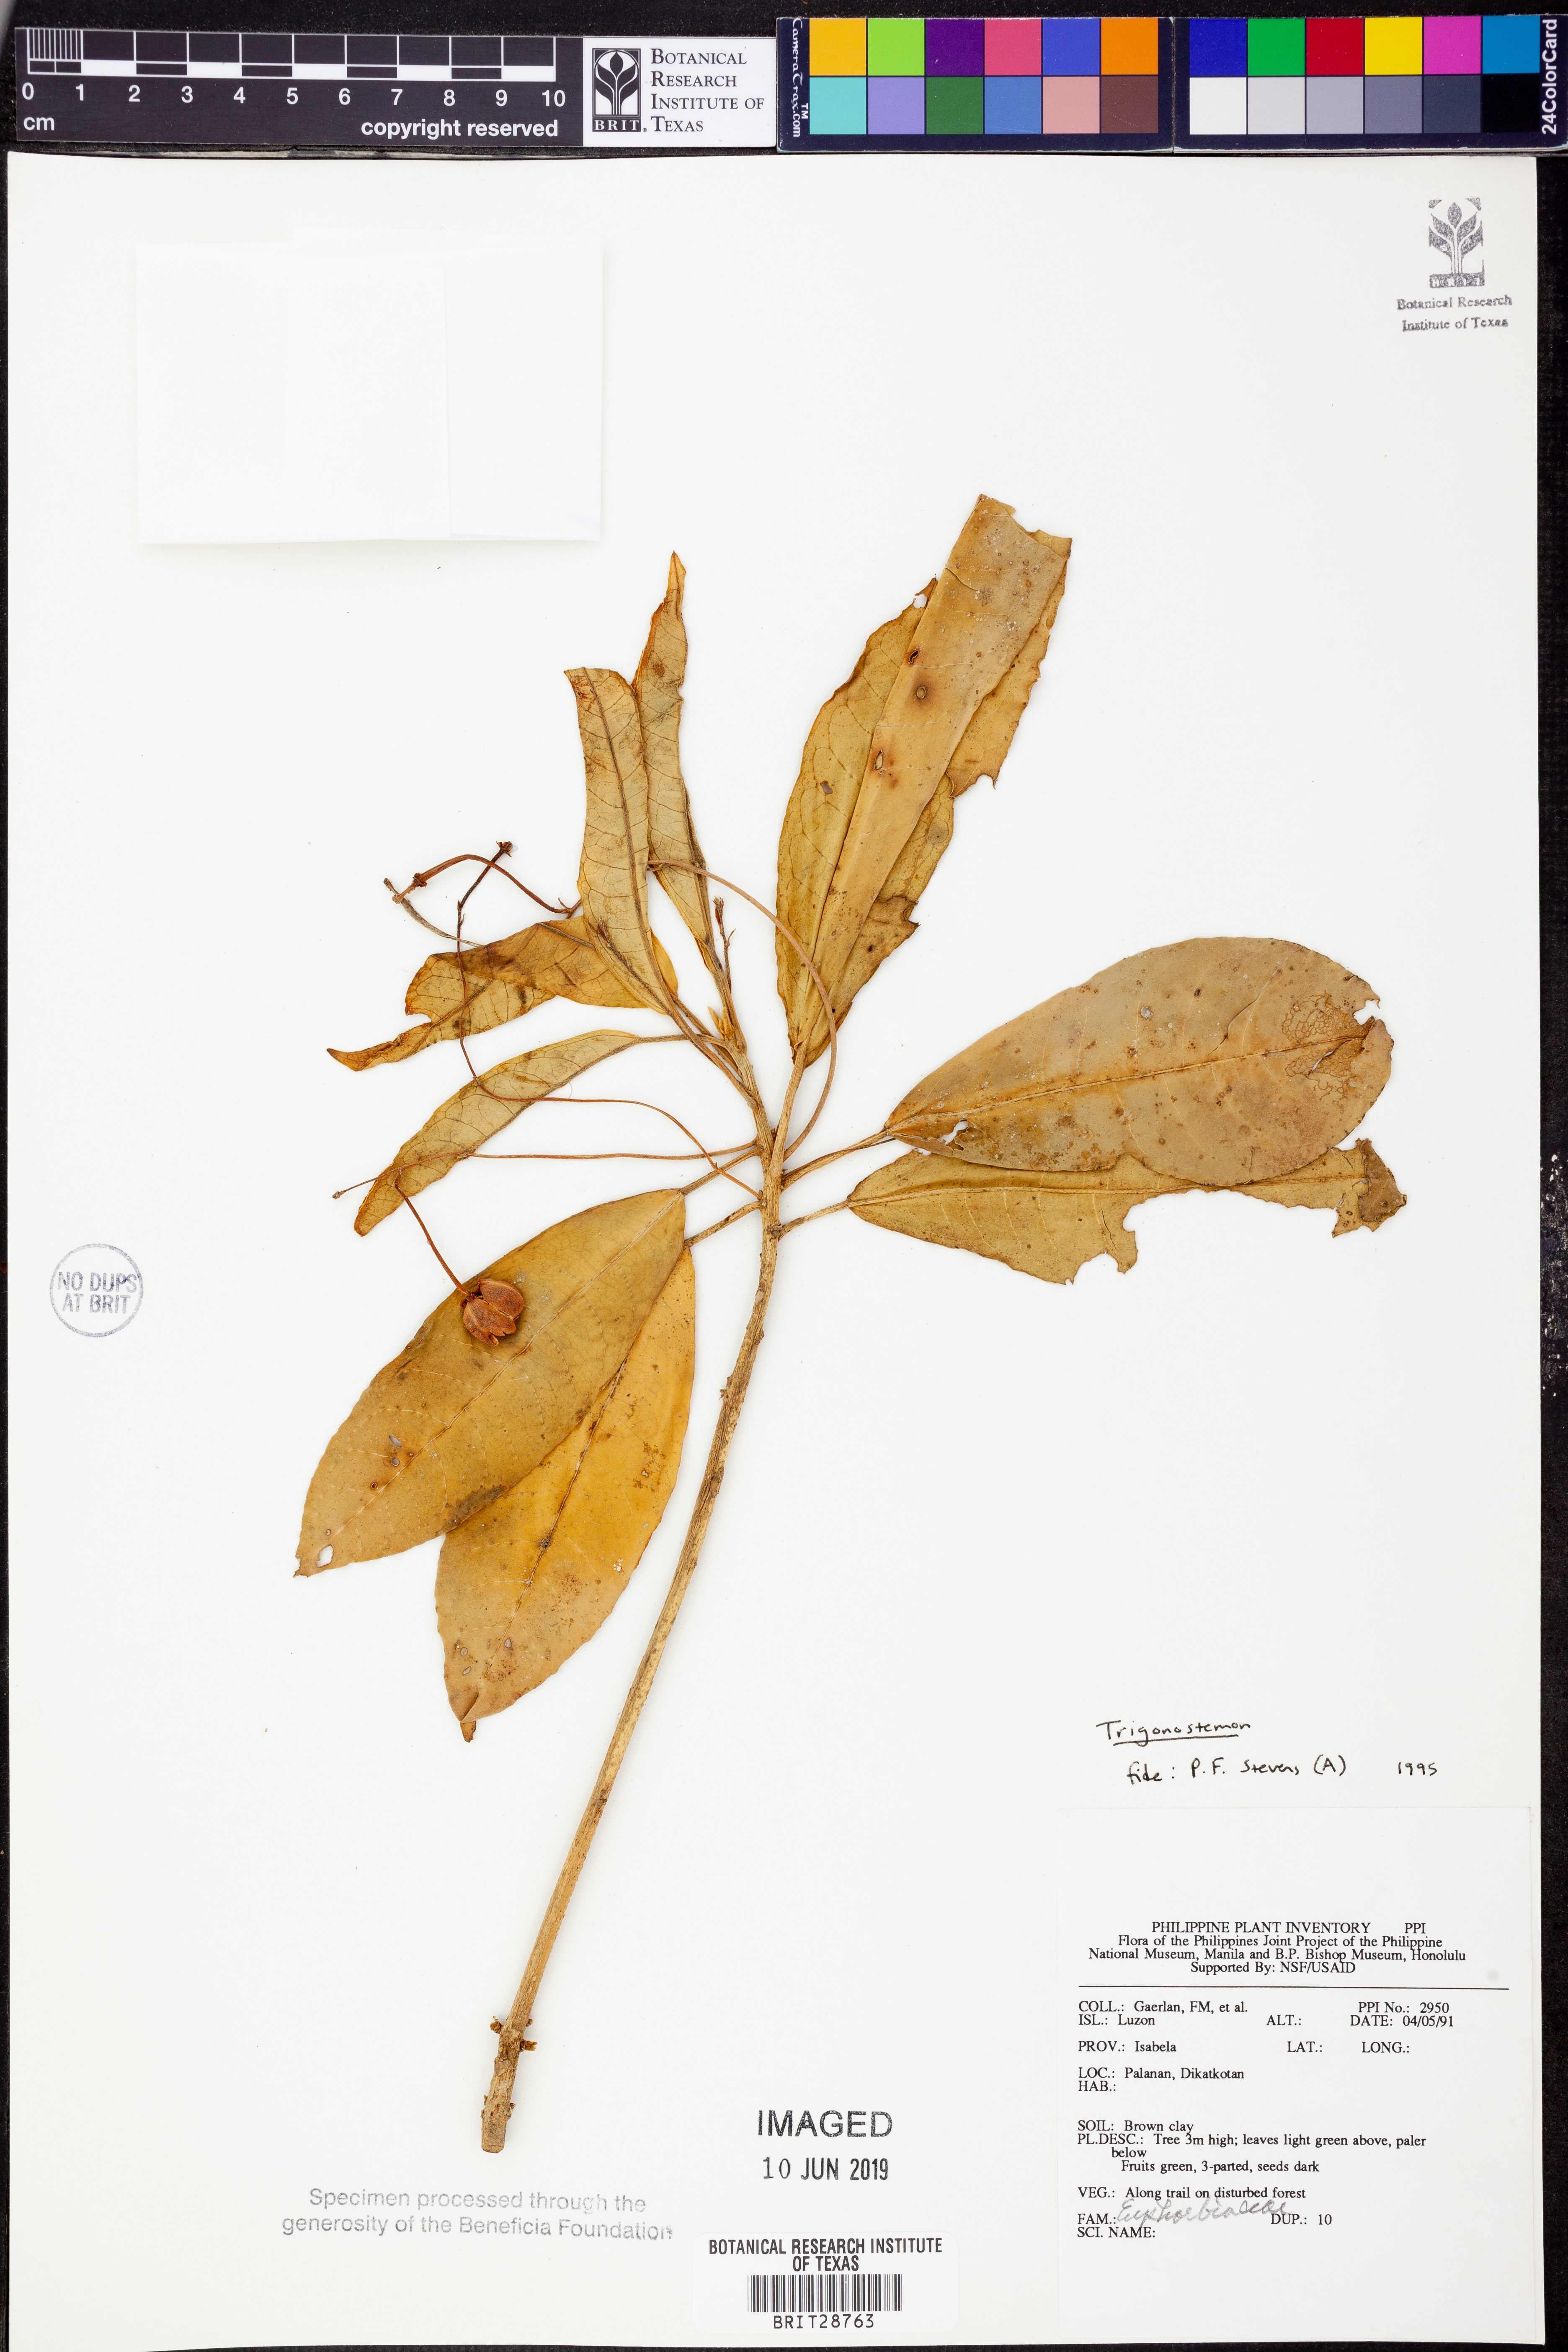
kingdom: Plantae
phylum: Tracheophyta
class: Magnoliopsida
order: Malpighiales
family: Euphorbiaceae
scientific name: Euphorbiaceae
